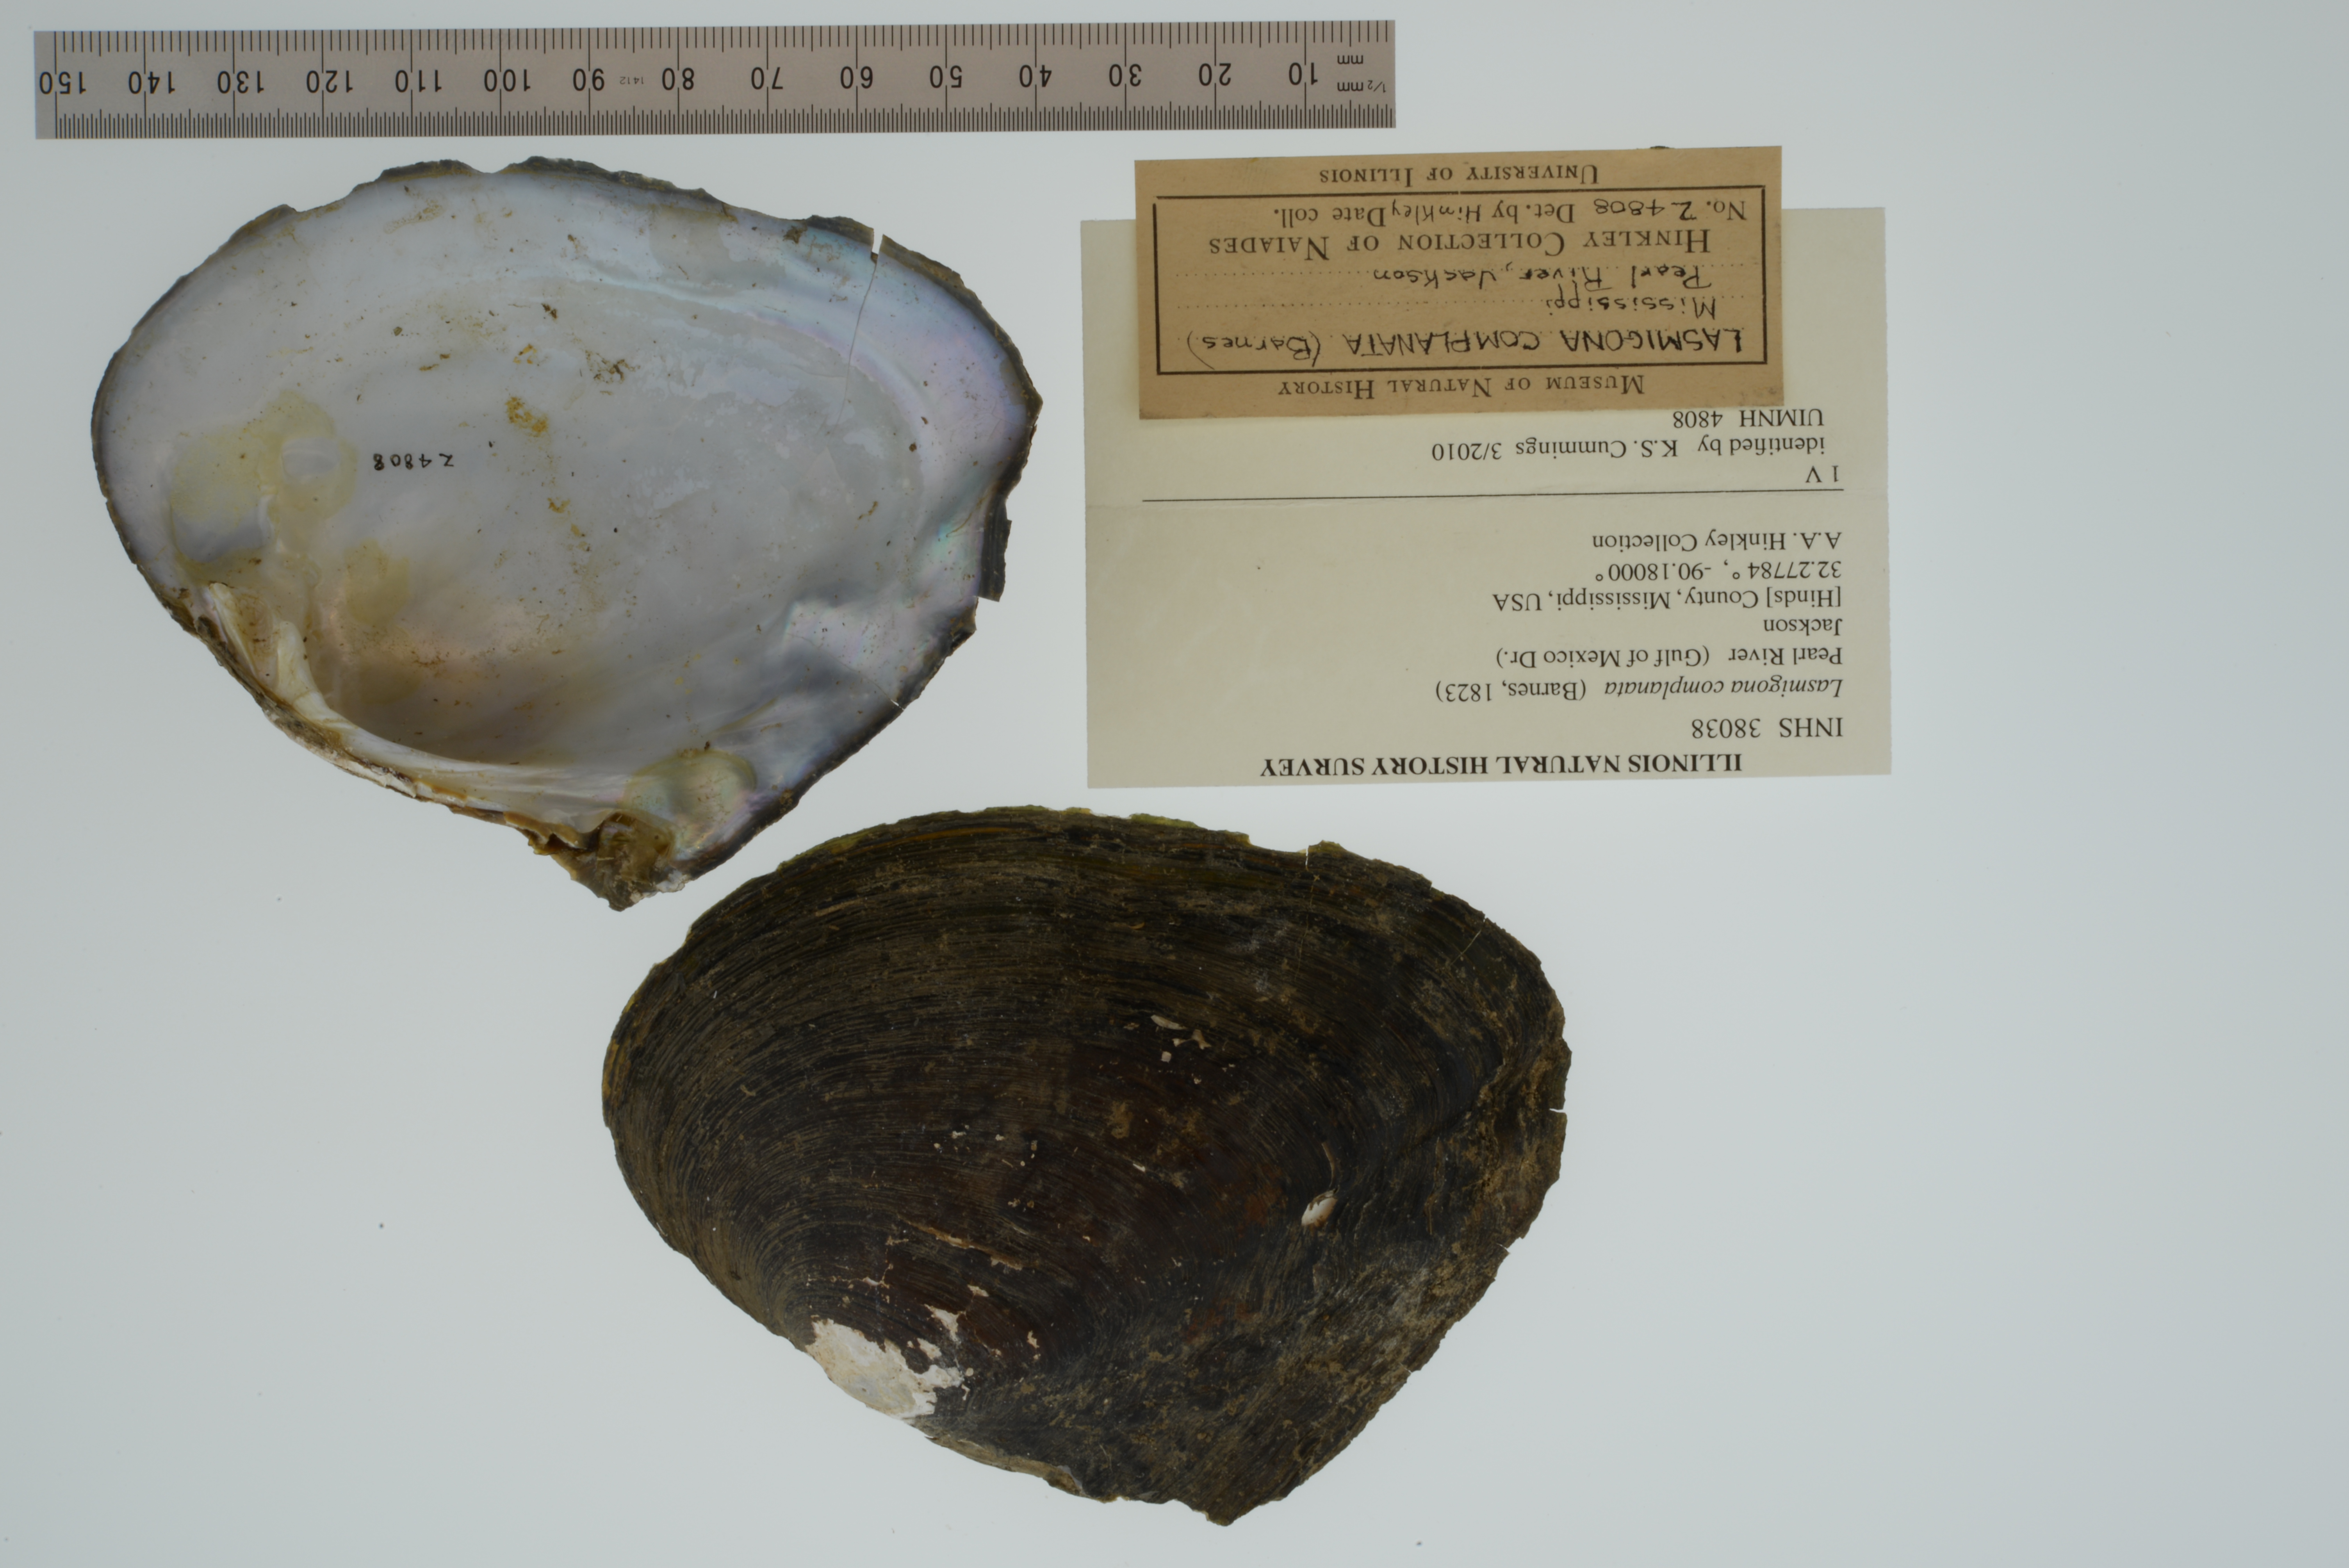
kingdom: Animalia
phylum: Mollusca
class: Bivalvia
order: Unionida
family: Unionidae
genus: Lasmigona
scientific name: Lasmigona complanata
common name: White heelsplitter
